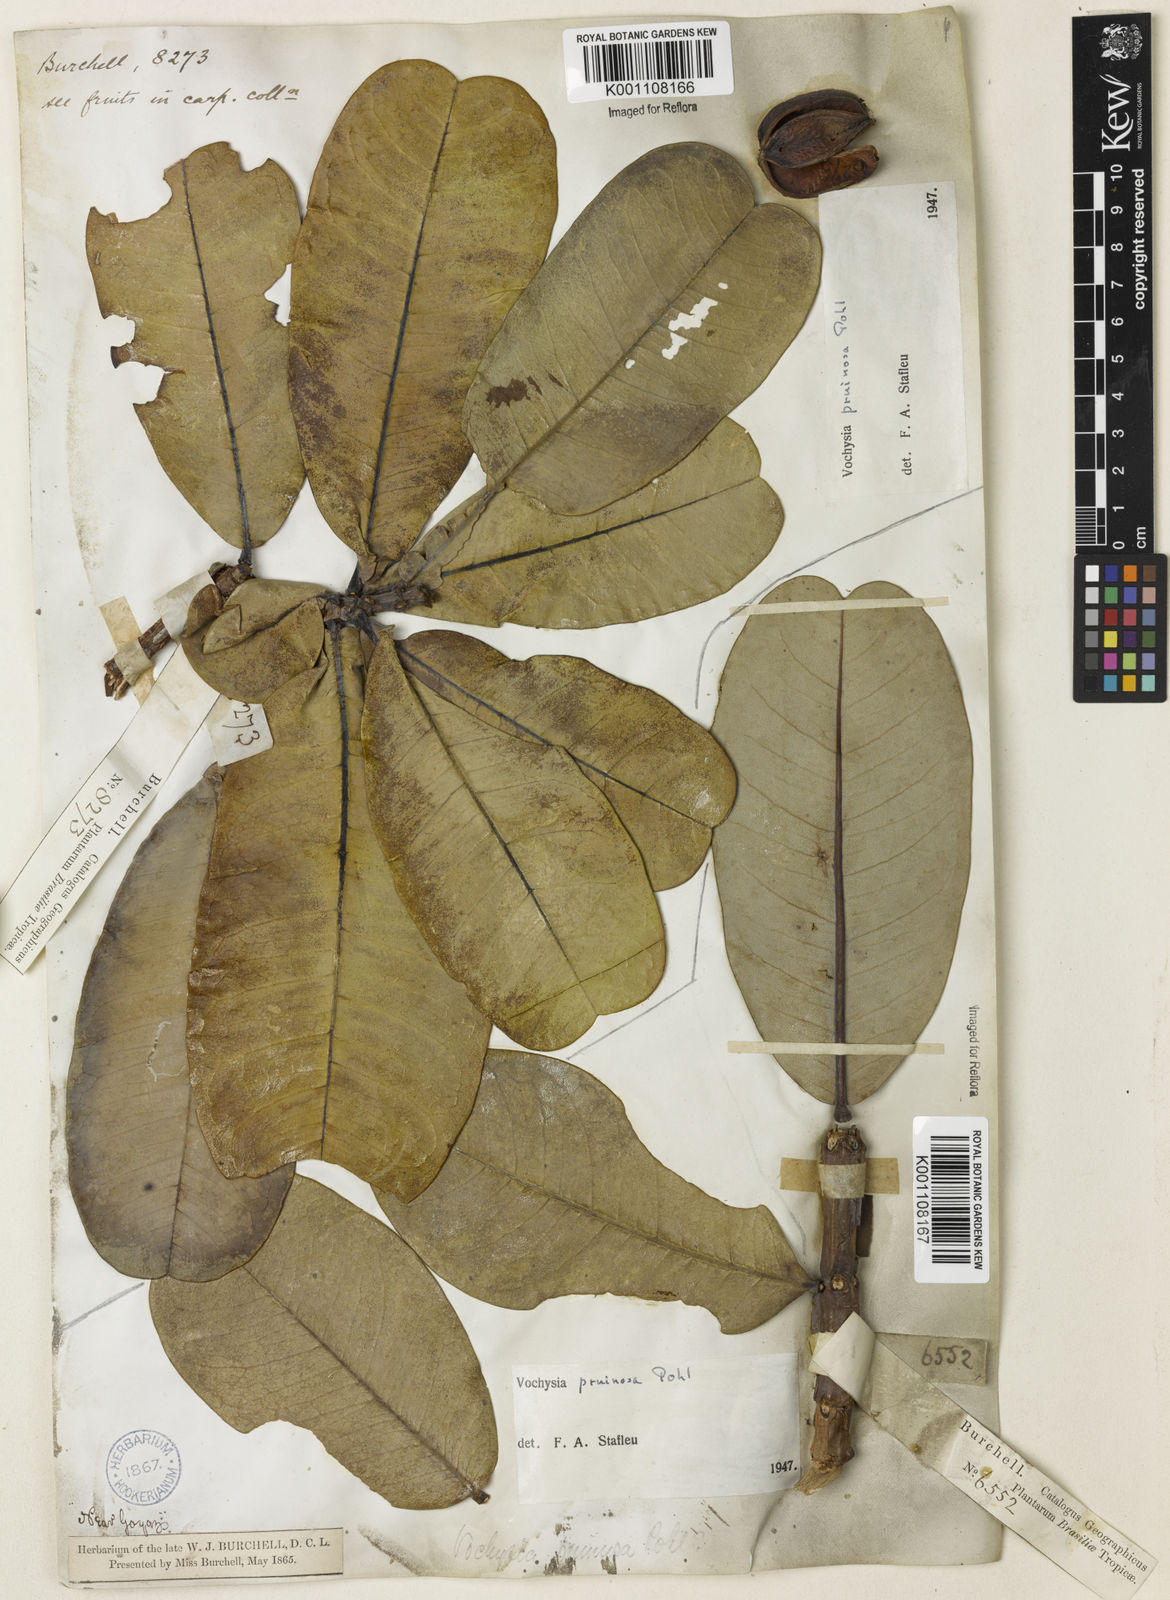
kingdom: Plantae
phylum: Tracheophyta
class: Magnoliopsida
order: Myrtales
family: Vochysiaceae
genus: Vochysia
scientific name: Vochysia pruinosa
